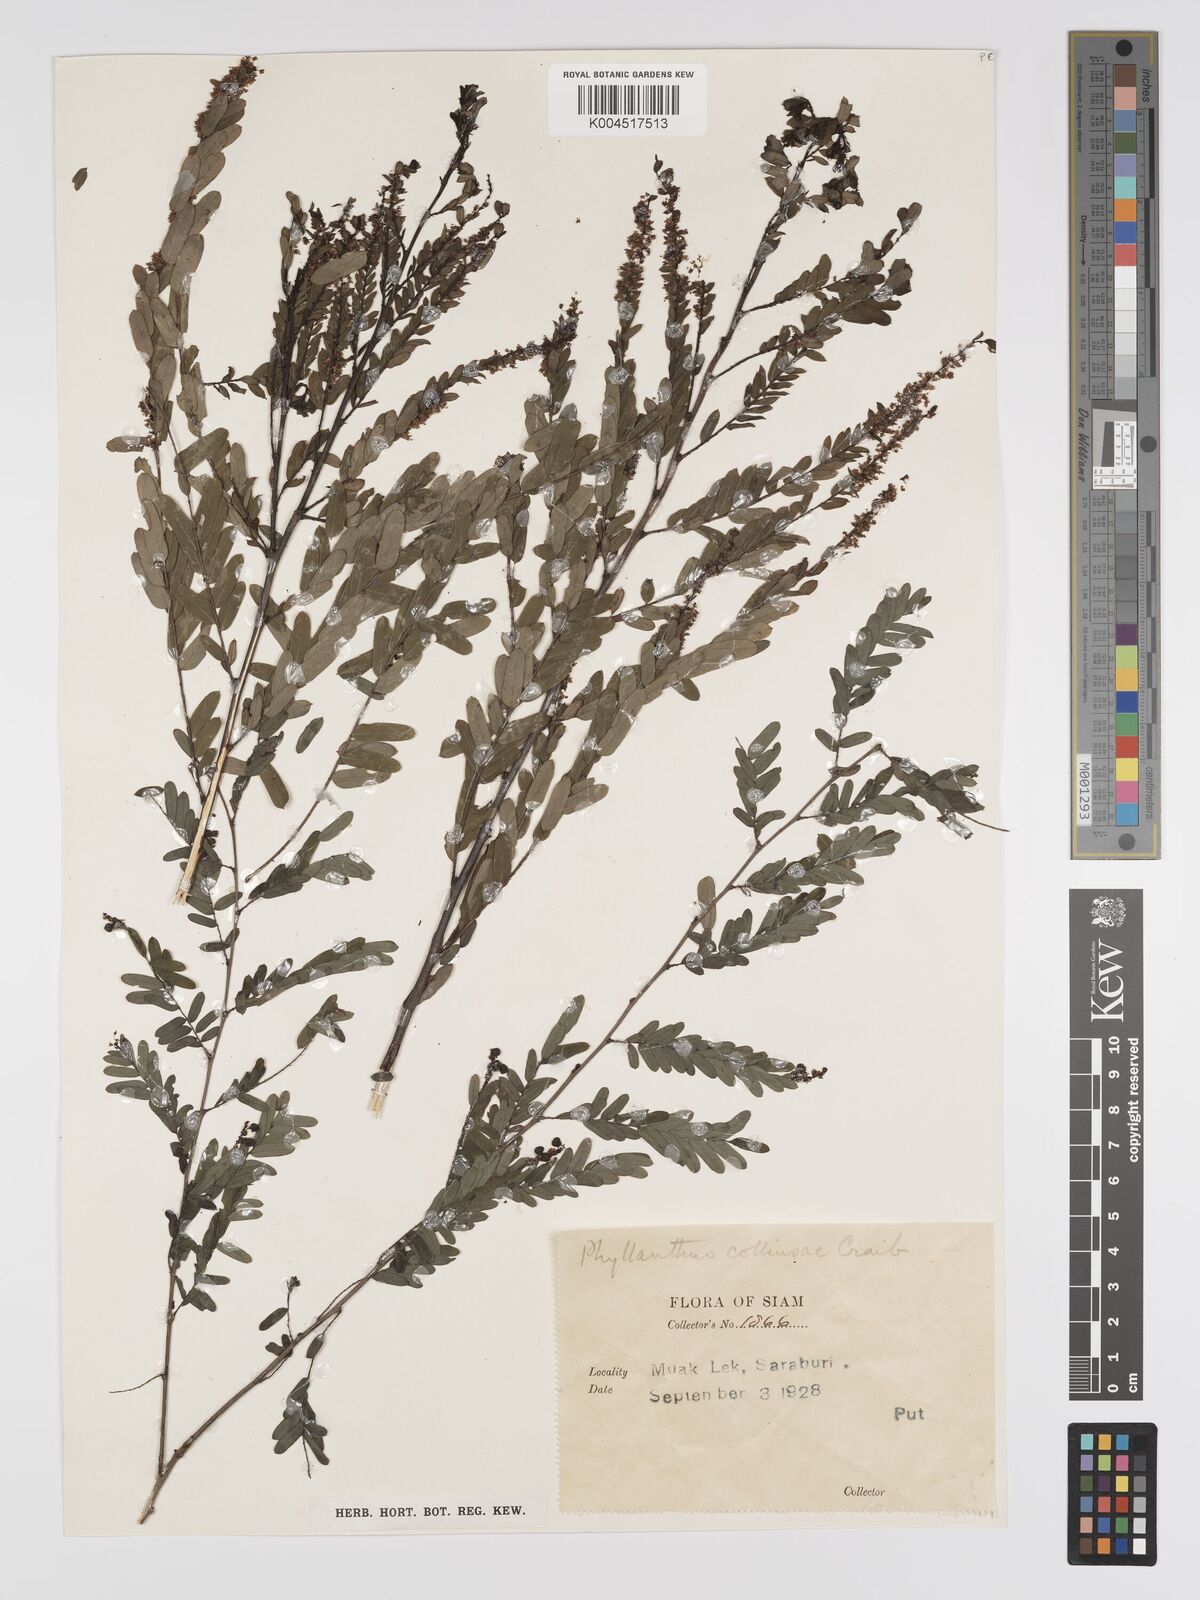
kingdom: Plantae
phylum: Tracheophyta
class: Magnoliopsida
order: Malpighiales
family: Phyllanthaceae
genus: Phyllanthus
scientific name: Phyllanthus collinsiae
